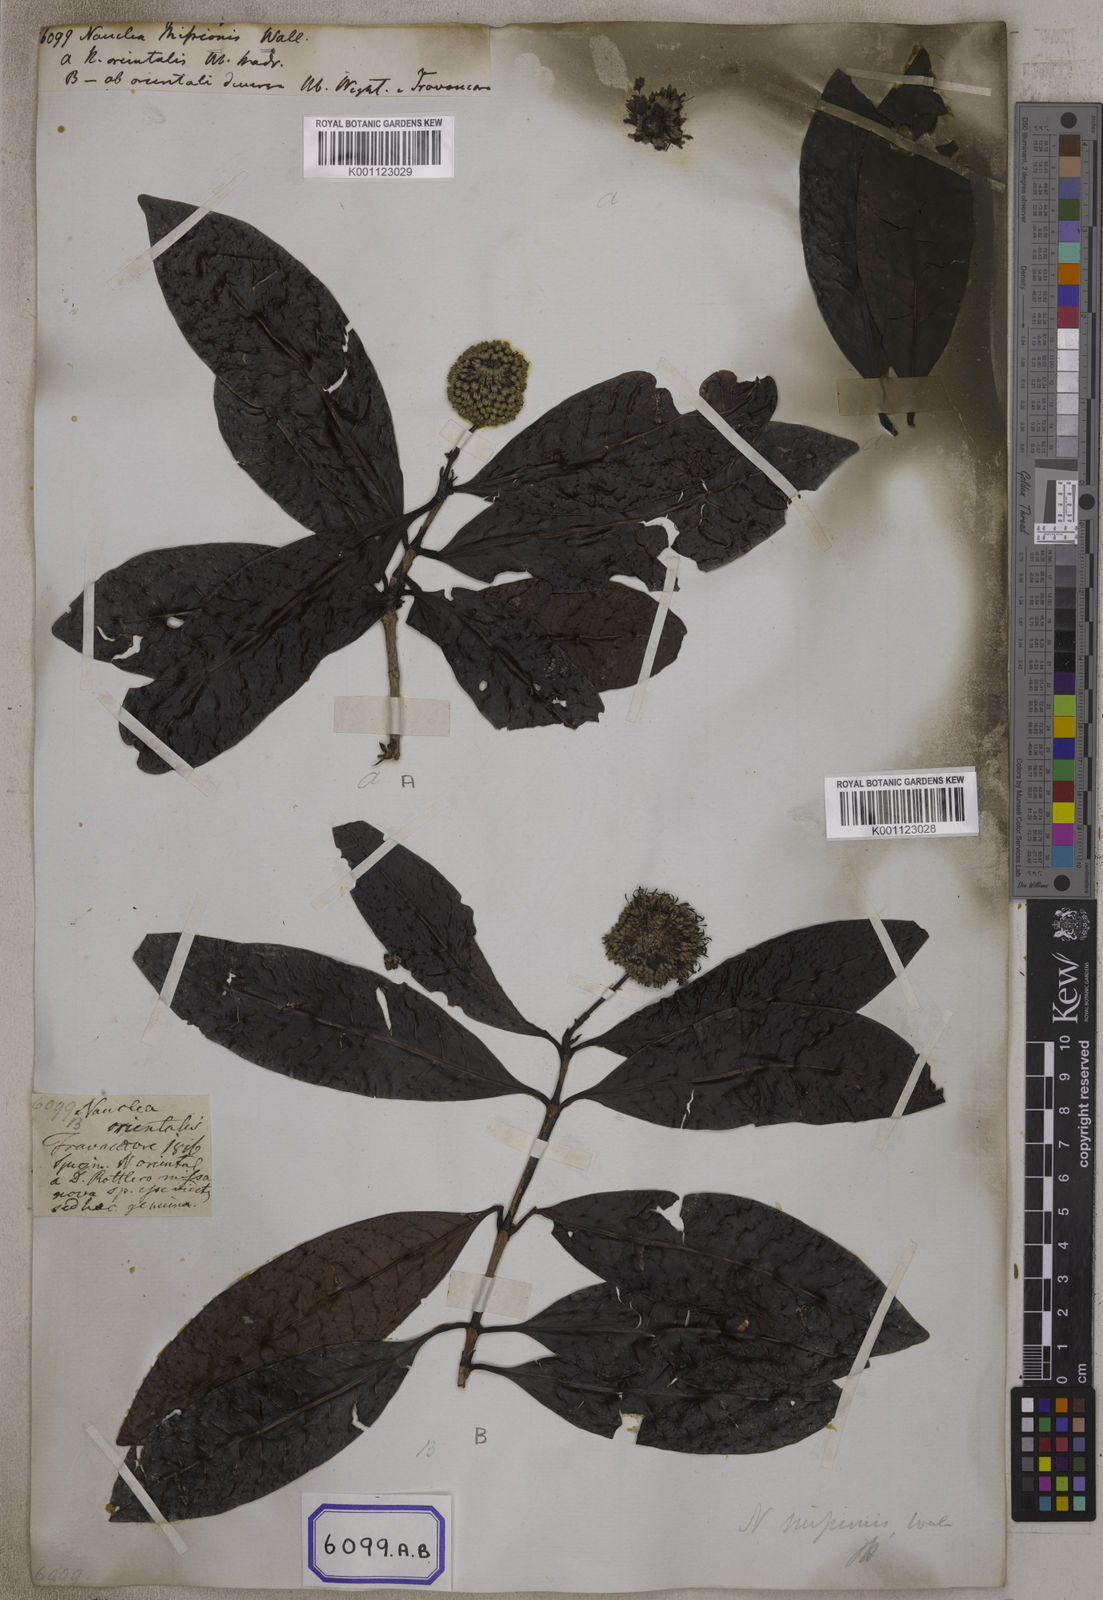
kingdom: Plantae
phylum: Tracheophyta
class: Magnoliopsida
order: Gentianales
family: Rubiaceae
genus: Nauclea
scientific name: Nauclea
